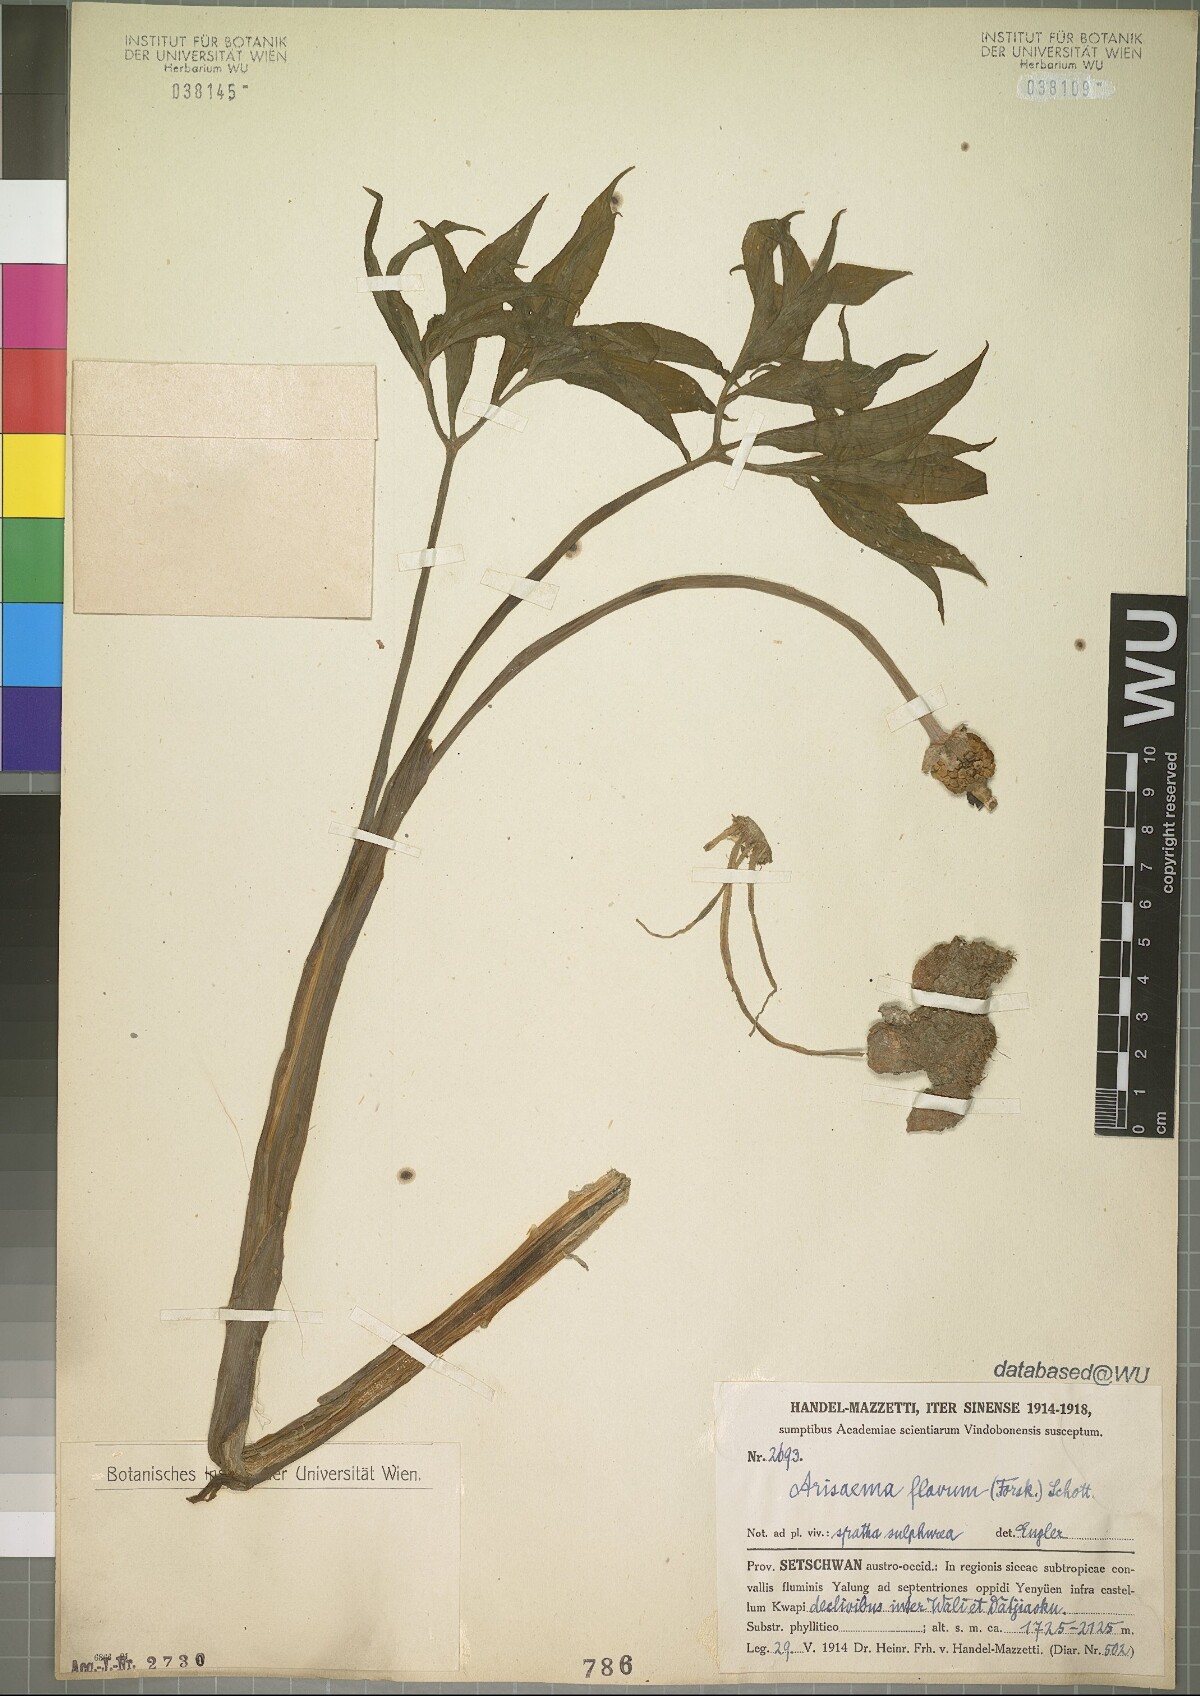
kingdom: Plantae
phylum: Tracheophyta
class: Liliopsida
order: Alismatales
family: Araceae
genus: Arisaema
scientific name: Arisaema flavum
